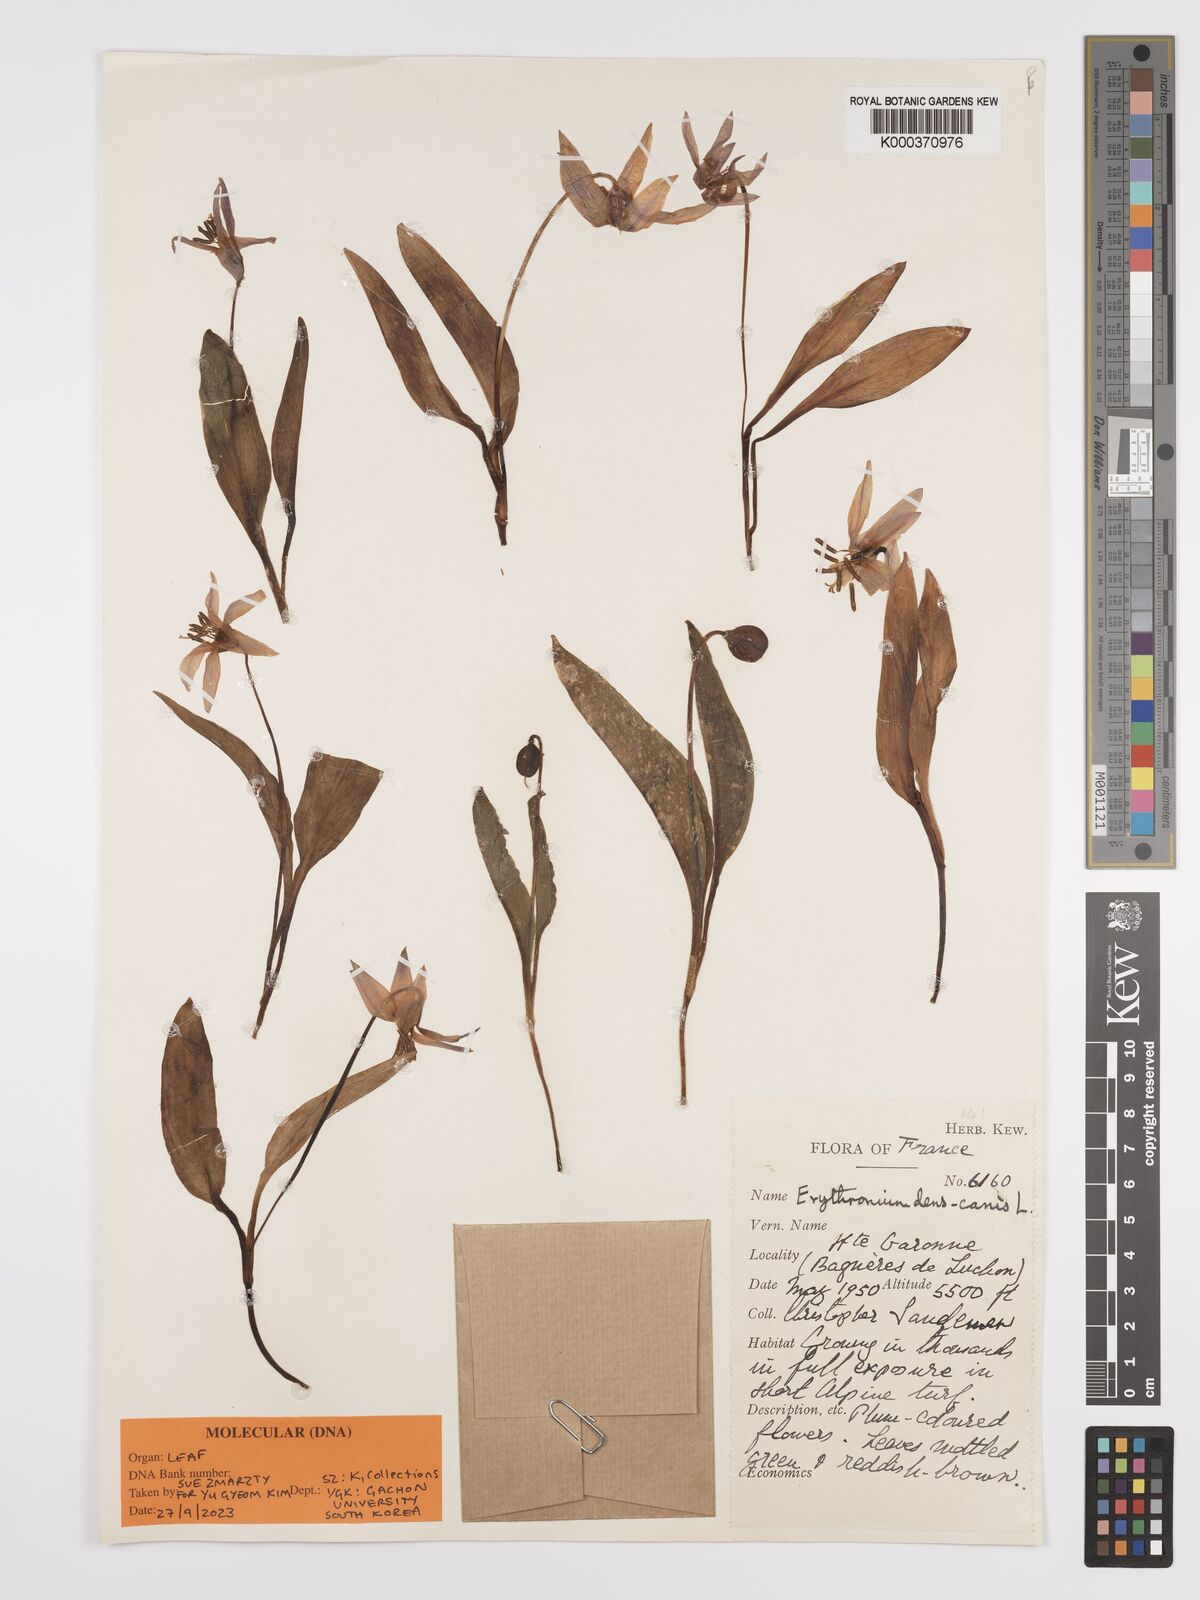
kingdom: Plantae
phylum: Tracheophyta
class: Liliopsida
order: Liliales
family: Liliaceae
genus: Erythronium
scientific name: Erythronium dens-canis
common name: Dog's-tooth-violet
